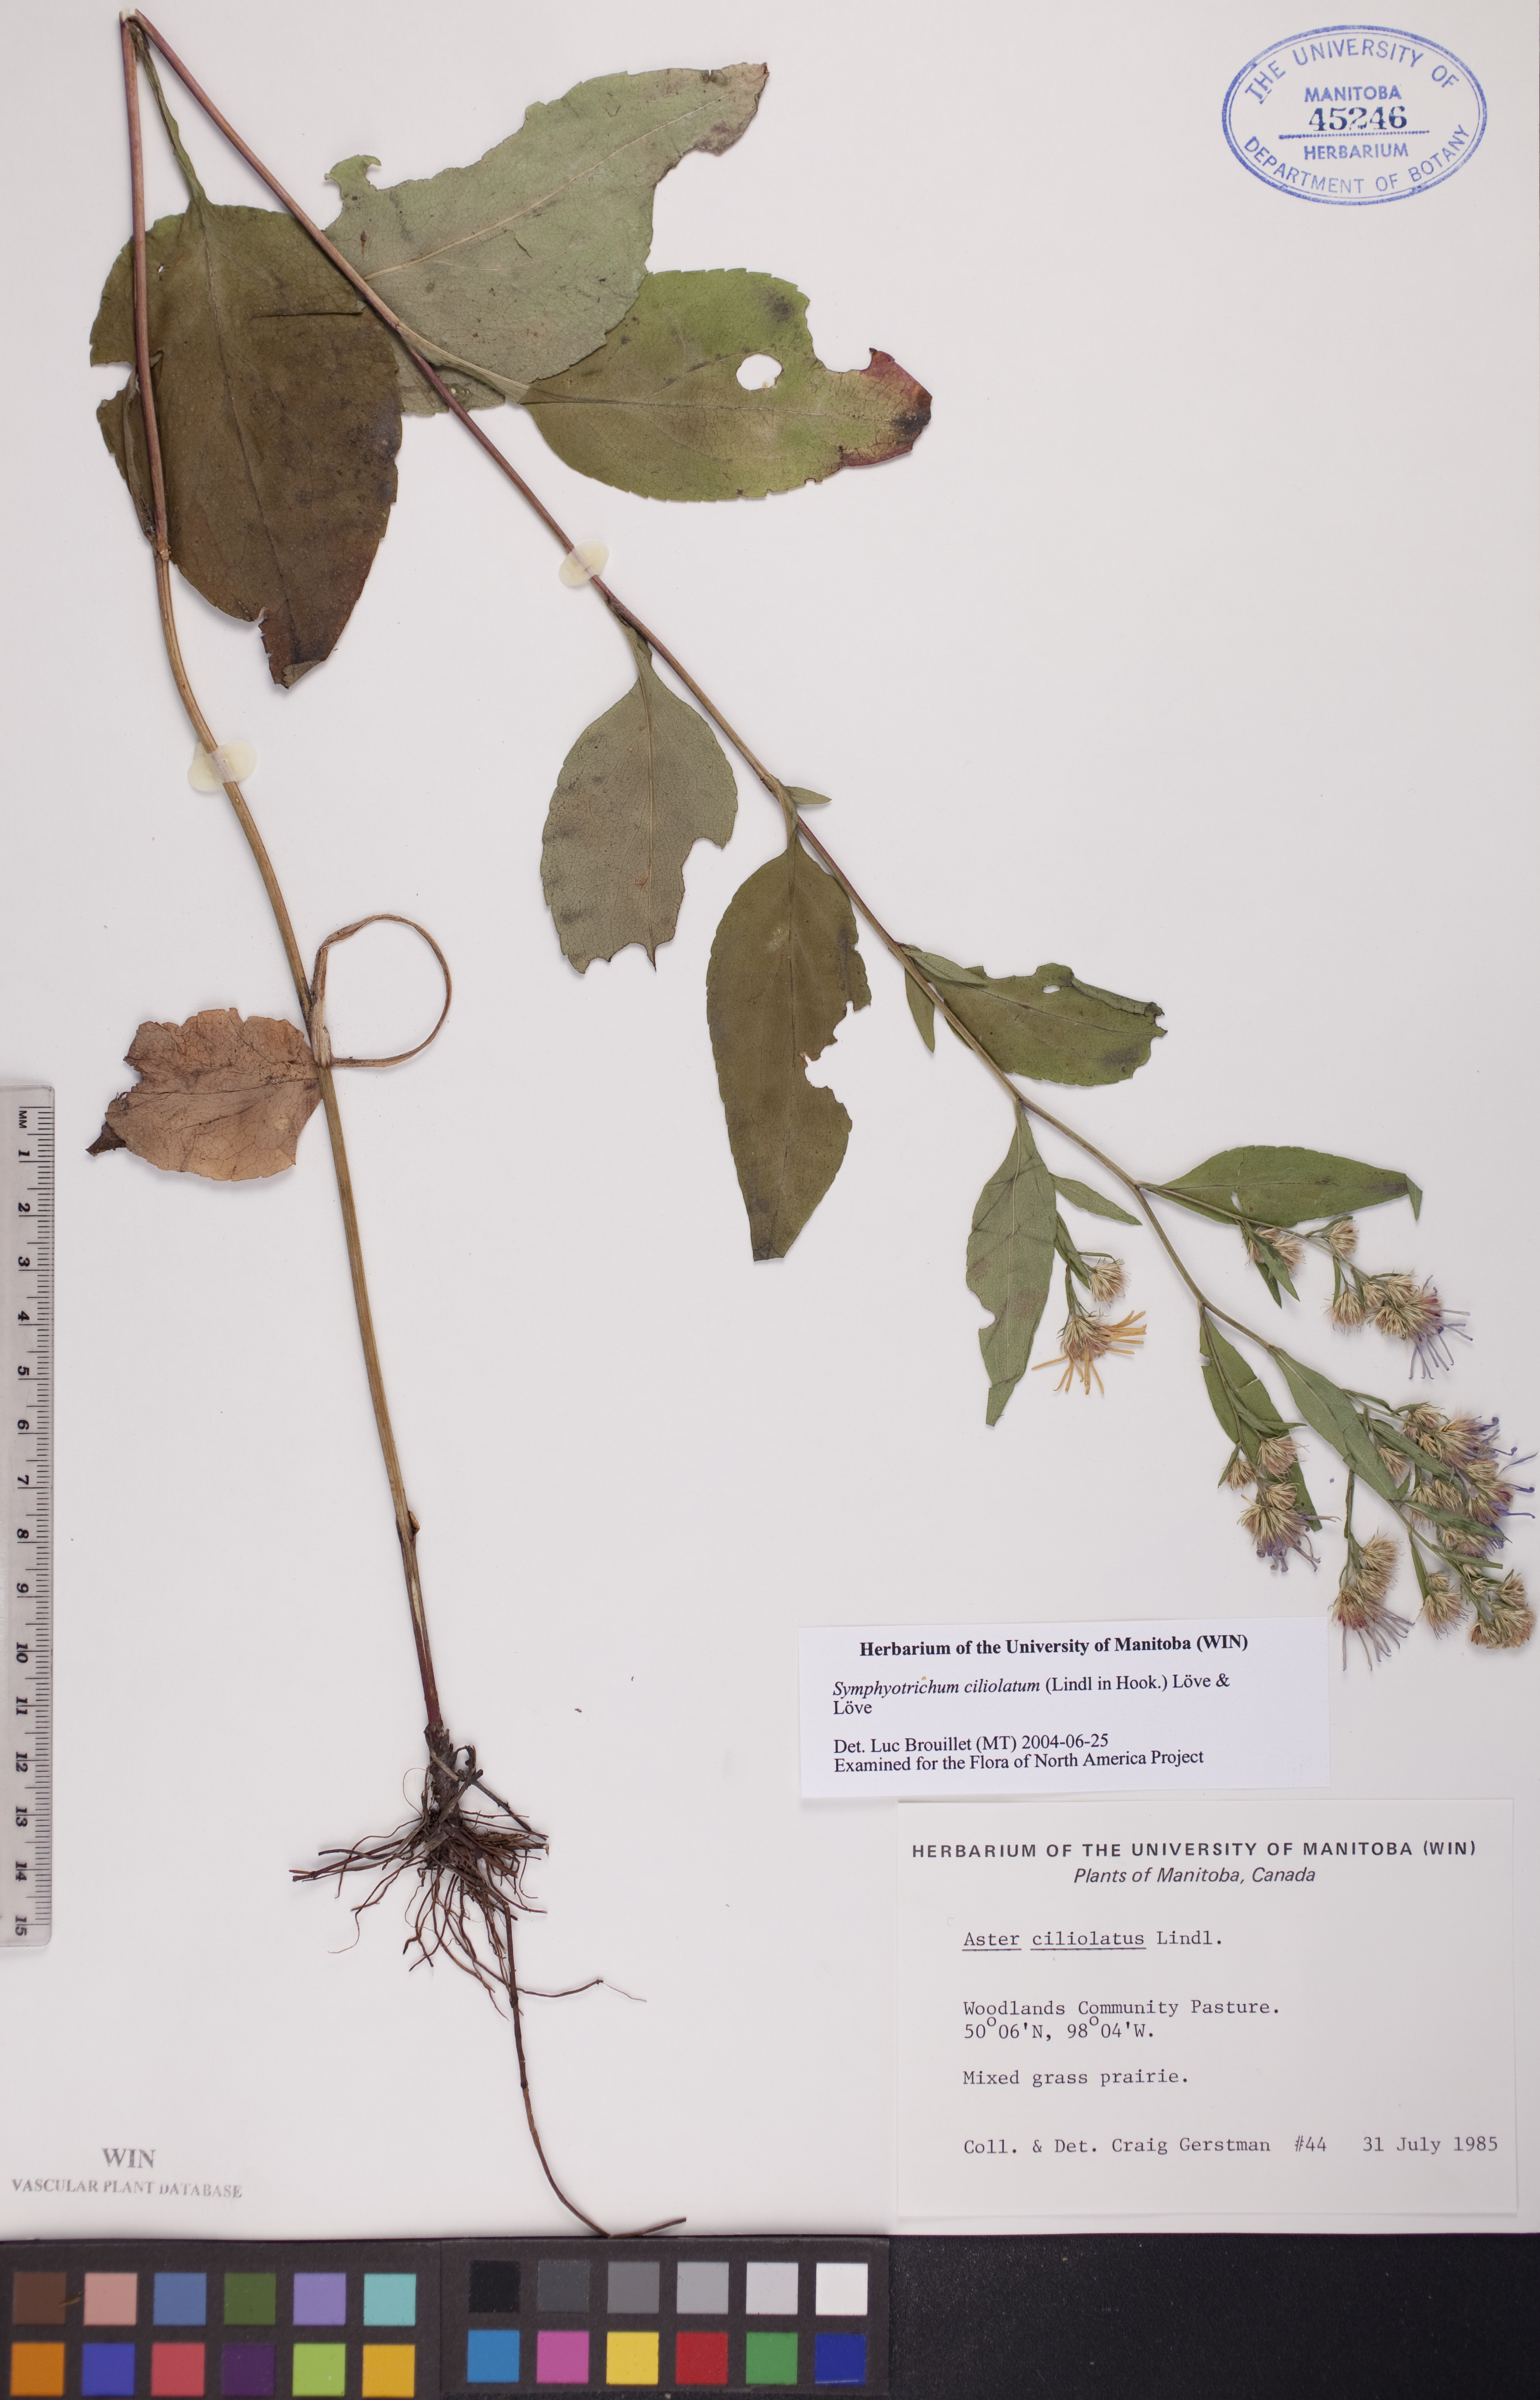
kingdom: Plantae
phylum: Tracheophyta
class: Magnoliopsida
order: Asterales
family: Asteraceae
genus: Symphyotrichum
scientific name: Symphyotrichum ciliolatum
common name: Fringed blue aster
